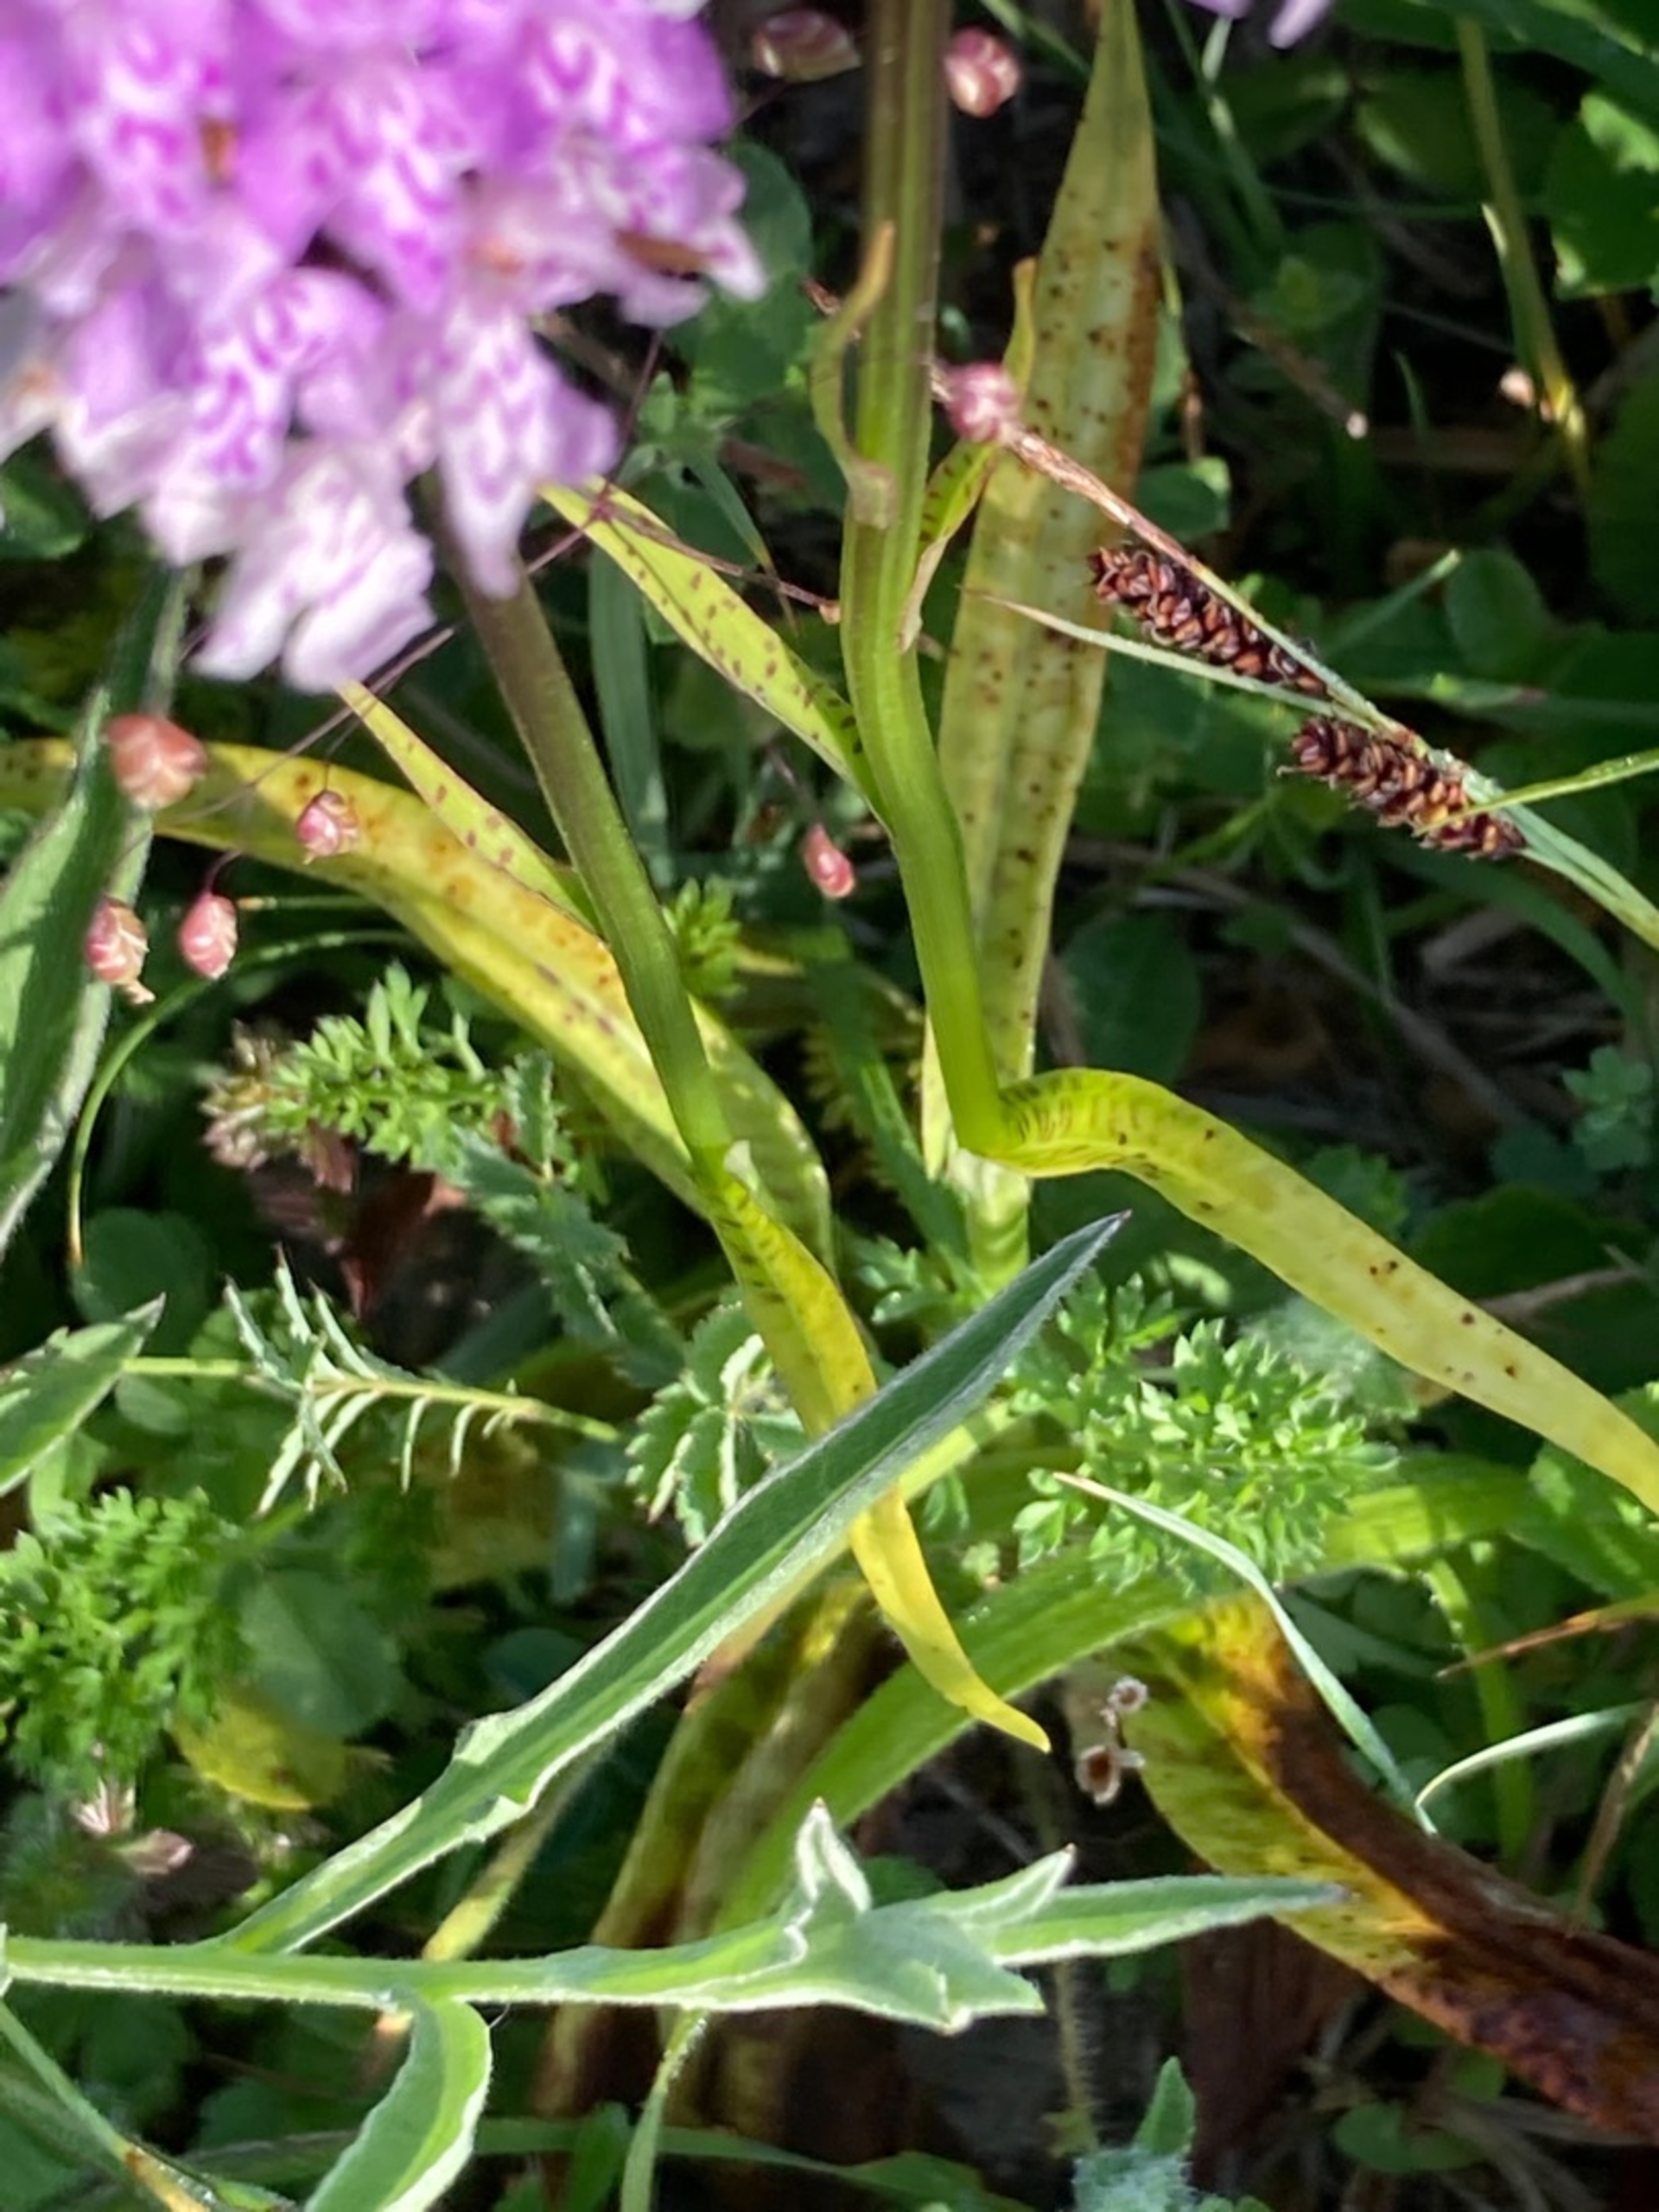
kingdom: Plantae
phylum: Tracheophyta
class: Liliopsida
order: Asparagales
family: Orchidaceae
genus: Dactylorhiza
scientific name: Dactylorhiza maculata
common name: Skov-gøgeurt
